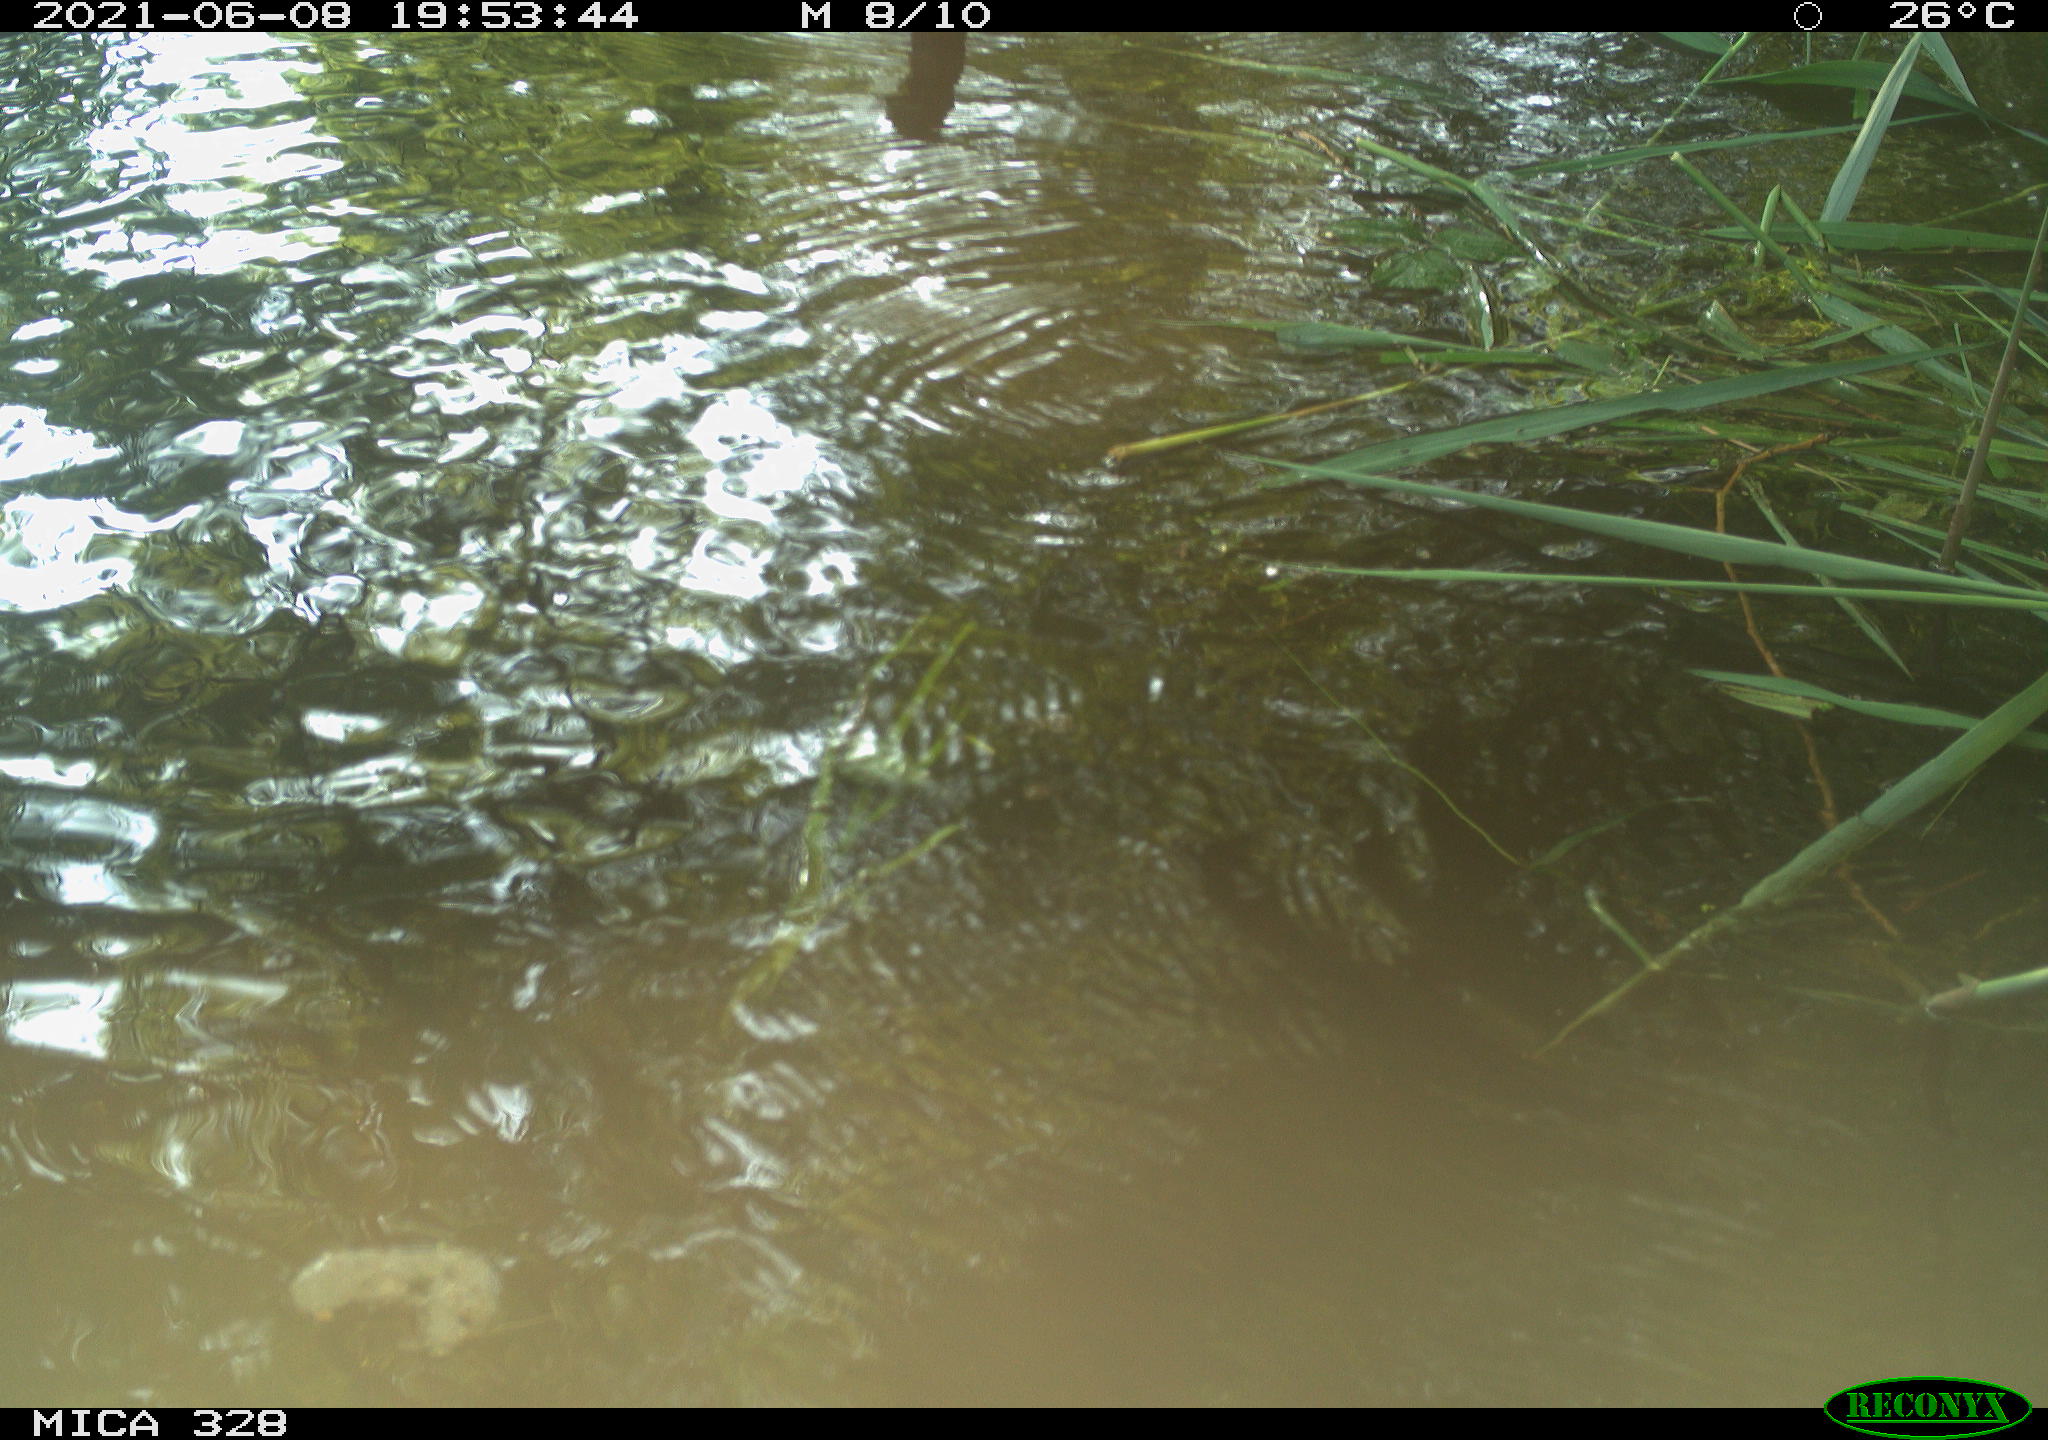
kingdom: Animalia
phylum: Chordata
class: Aves
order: Anseriformes
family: Anatidae
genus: Aix
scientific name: Aix galericulata
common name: Mandarin duck
